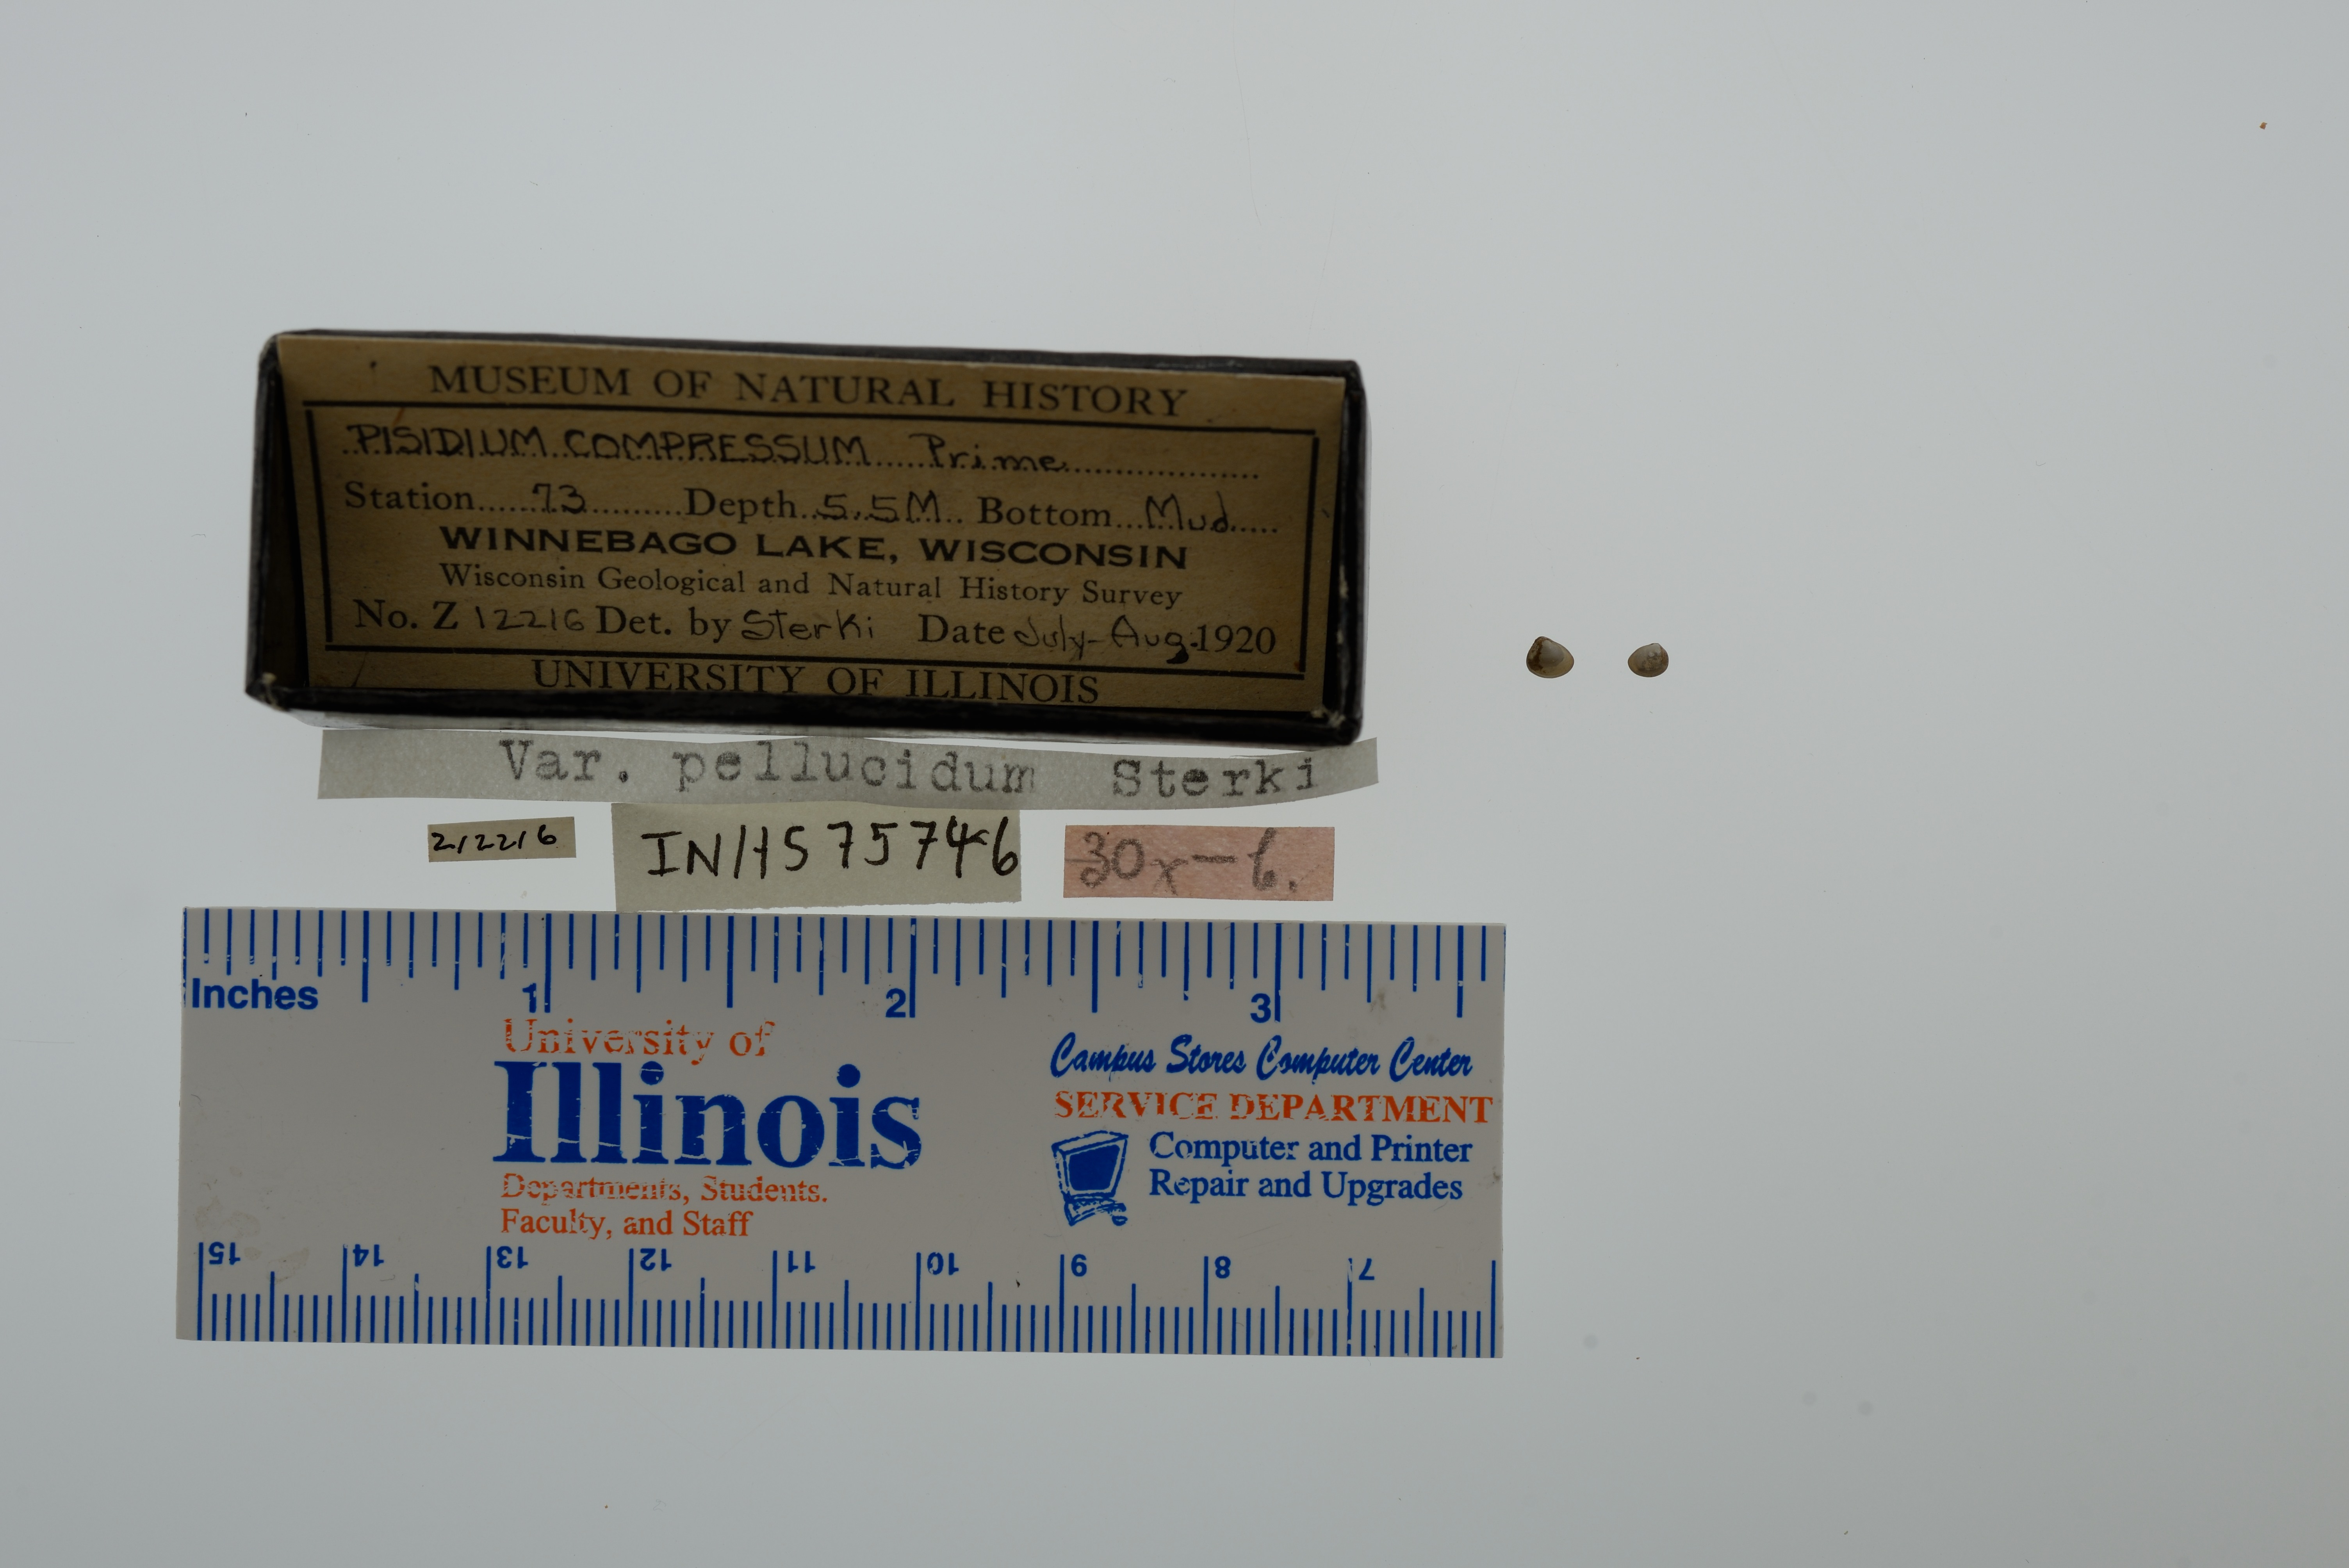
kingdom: Animalia
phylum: Mollusca
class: Bivalvia
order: Sphaeriida
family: Sphaeriidae
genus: Euglesa
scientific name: Euglesa compressa
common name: Ridgedbeak peaclam
